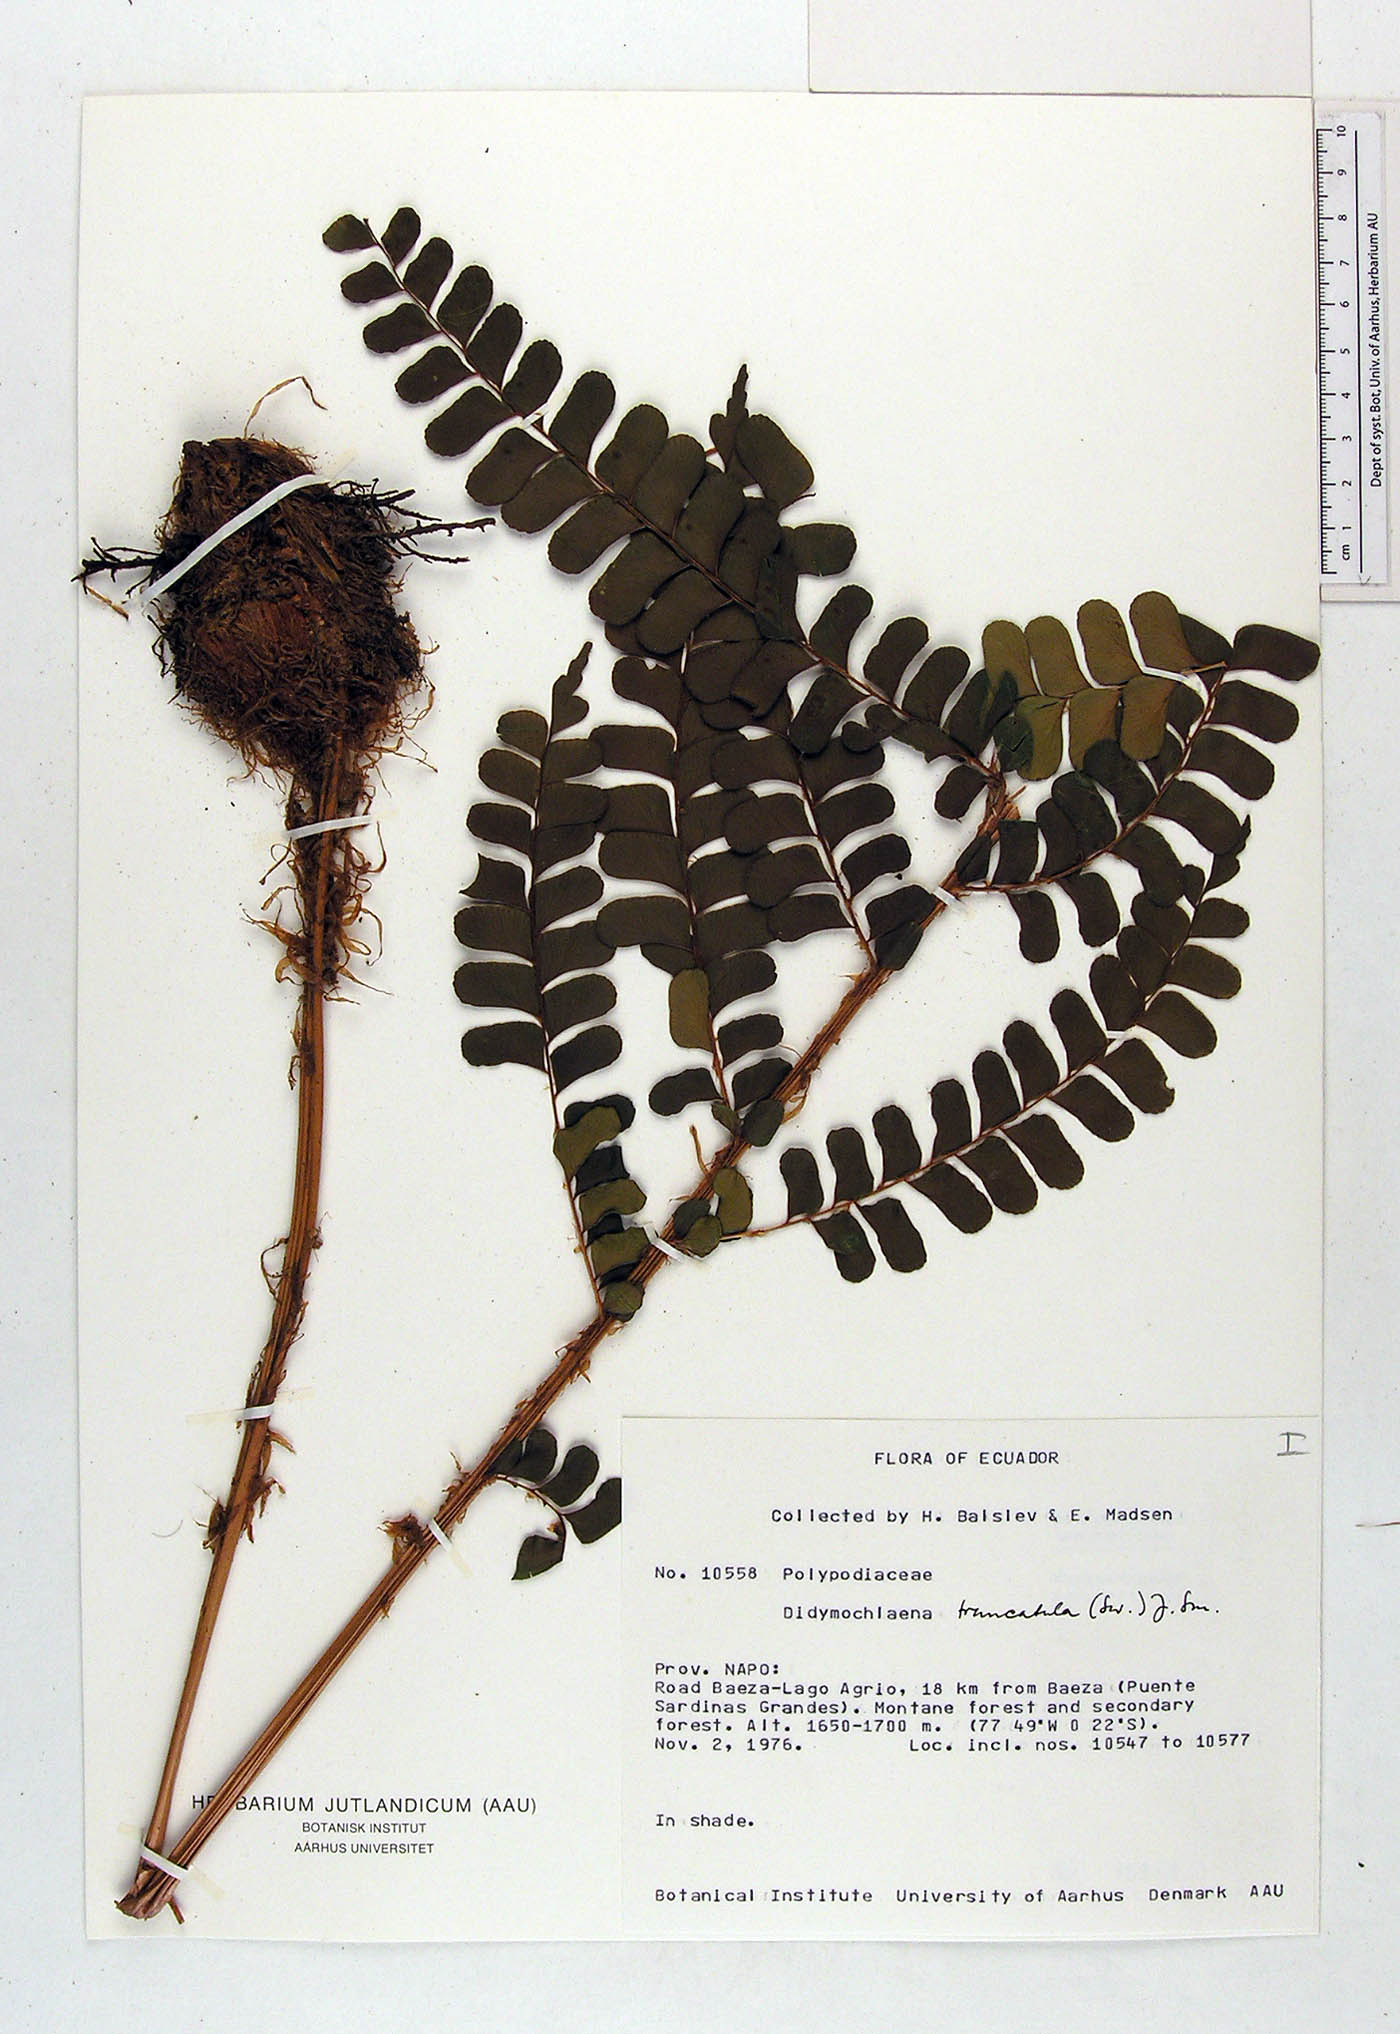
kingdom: Plantae
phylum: Tracheophyta
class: Polypodiopsida
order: Polypodiales
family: Didymochlaenaceae
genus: Didymochlaena
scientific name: Didymochlaena truncatula
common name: Mahogany fern
